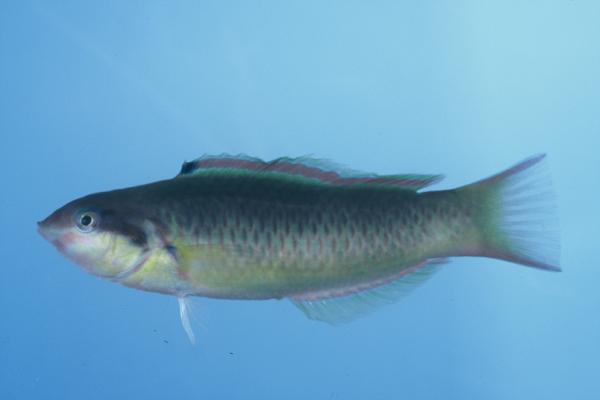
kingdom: Animalia
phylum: Chordata
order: Perciformes
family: Labridae
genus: Thalassoma
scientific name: Thalassoma genivittatum
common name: Red-cheek wrasse
